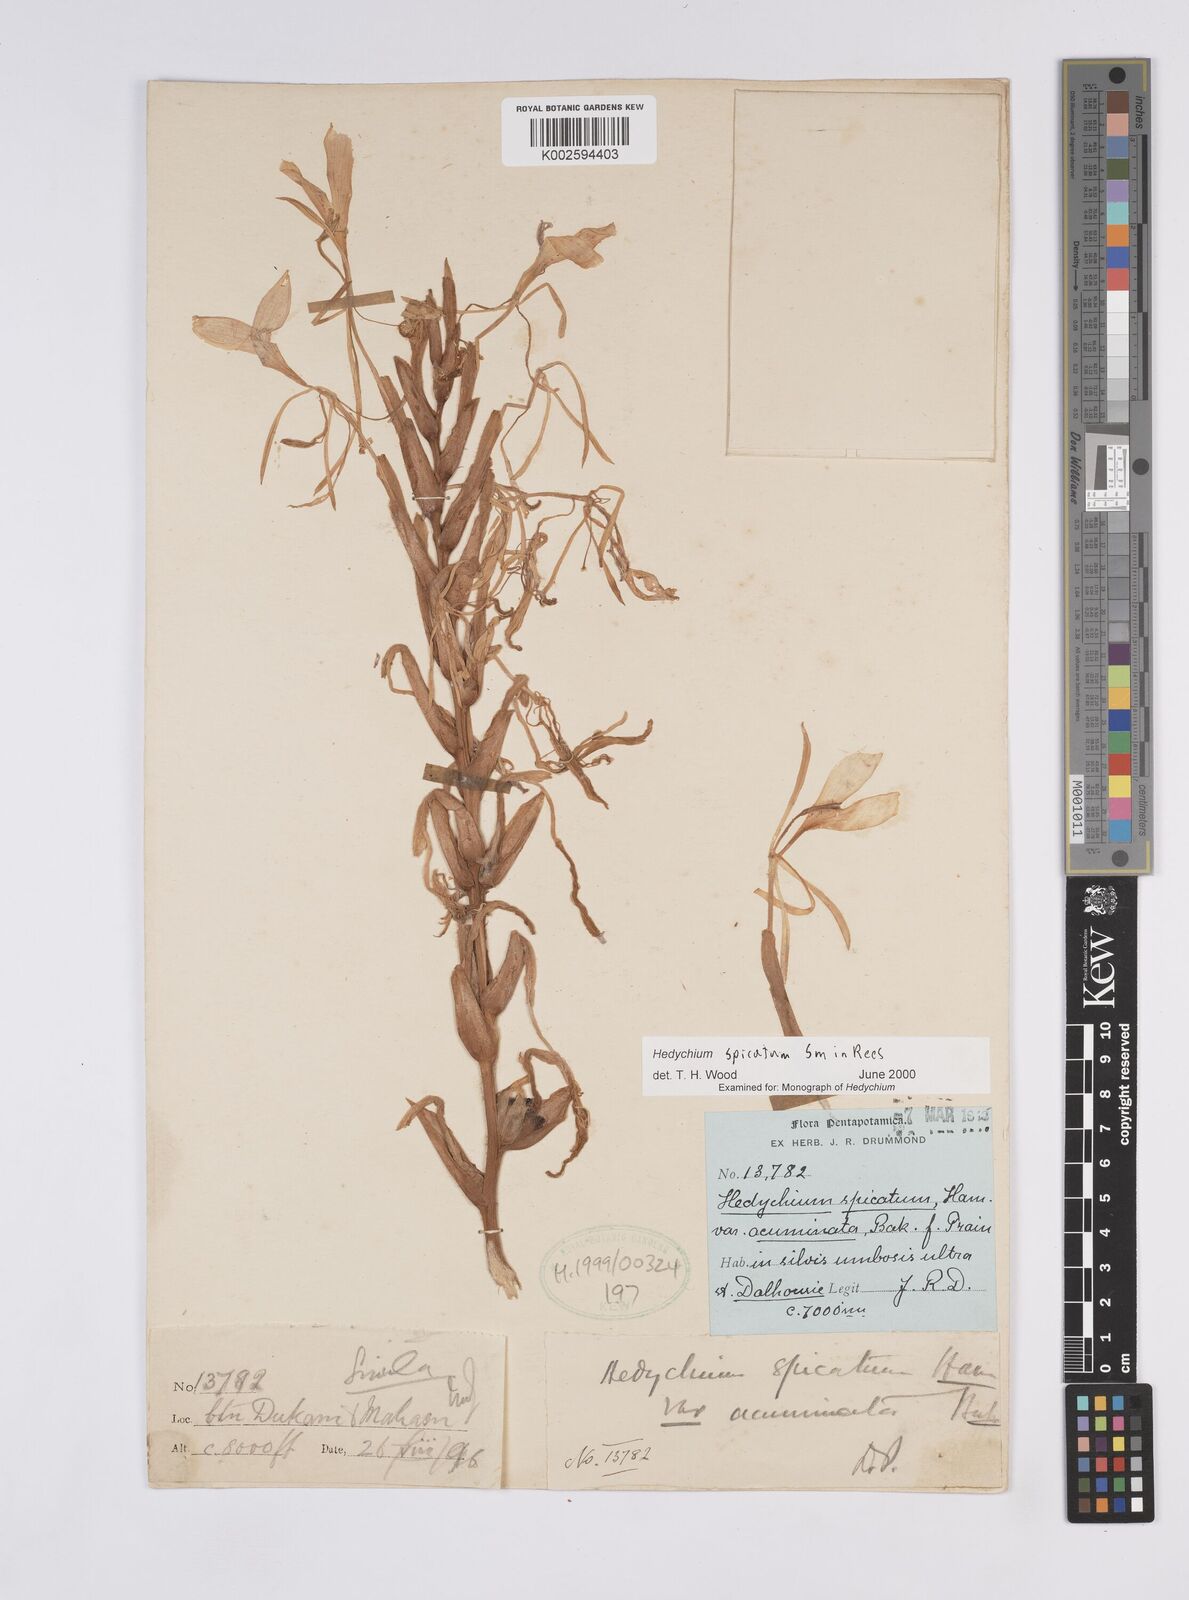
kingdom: Plantae
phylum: Tracheophyta
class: Liliopsida
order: Zingiberales
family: Zingiberaceae
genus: Hedychium
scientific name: Hedychium spicatum
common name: Spiked ginger-lily
